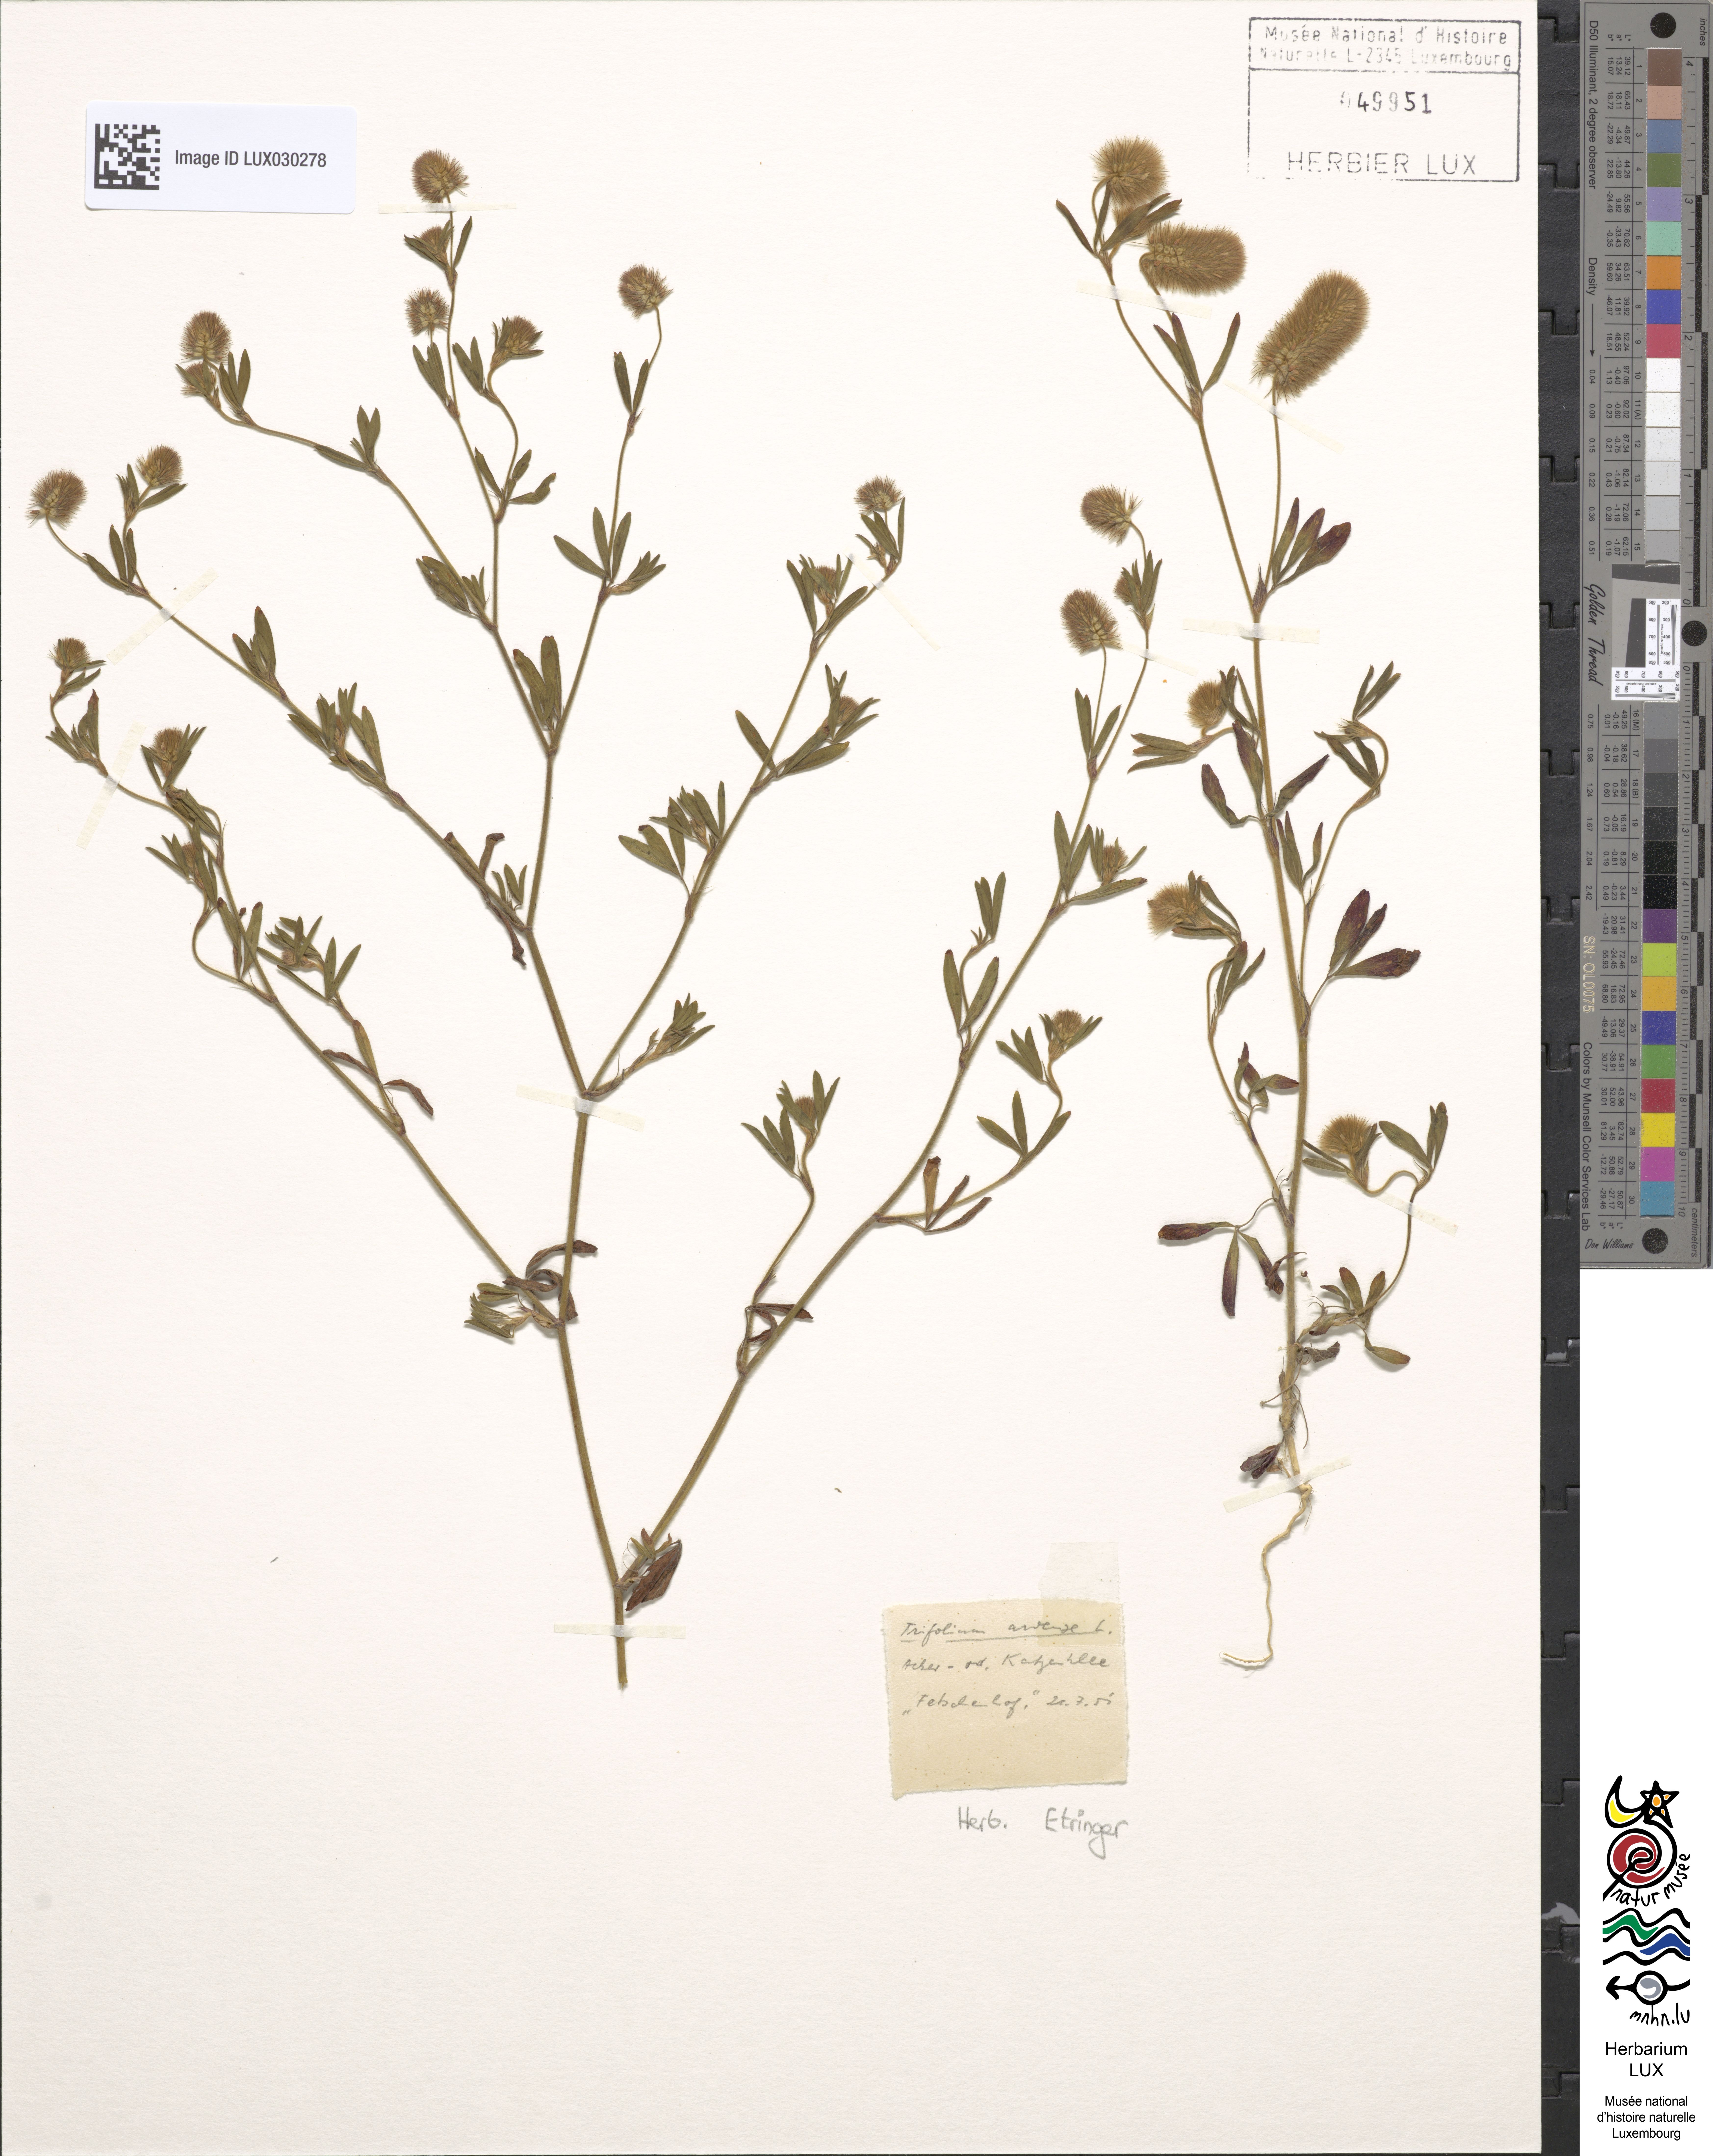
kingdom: Plantae
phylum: Tracheophyta
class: Magnoliopsida
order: Fabales
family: Fabaceae
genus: Trifolium
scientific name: Trifolium arvense
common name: Hare's-foot clover
